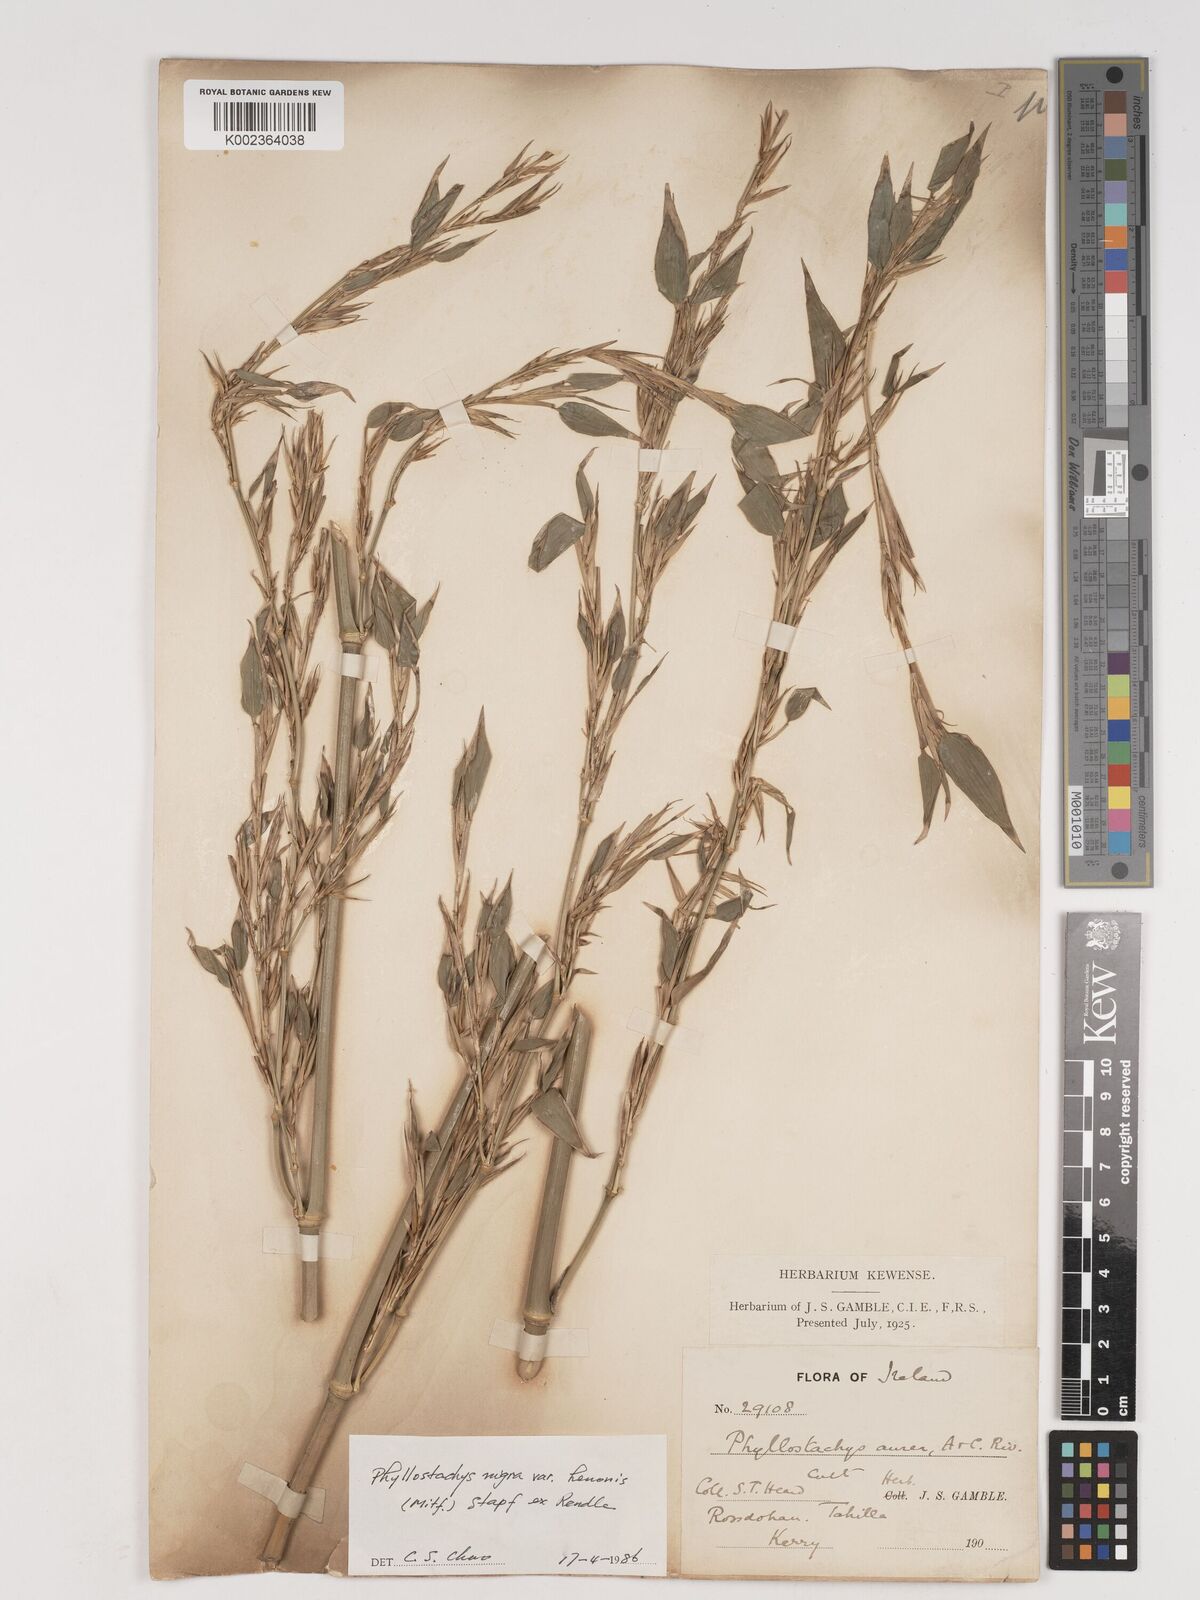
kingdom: Plantae
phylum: Tracheophyta
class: Liliopsida
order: Poales
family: Poaceae
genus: Phyllostachys
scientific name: Phyllostachys nigra
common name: Black bamboo
